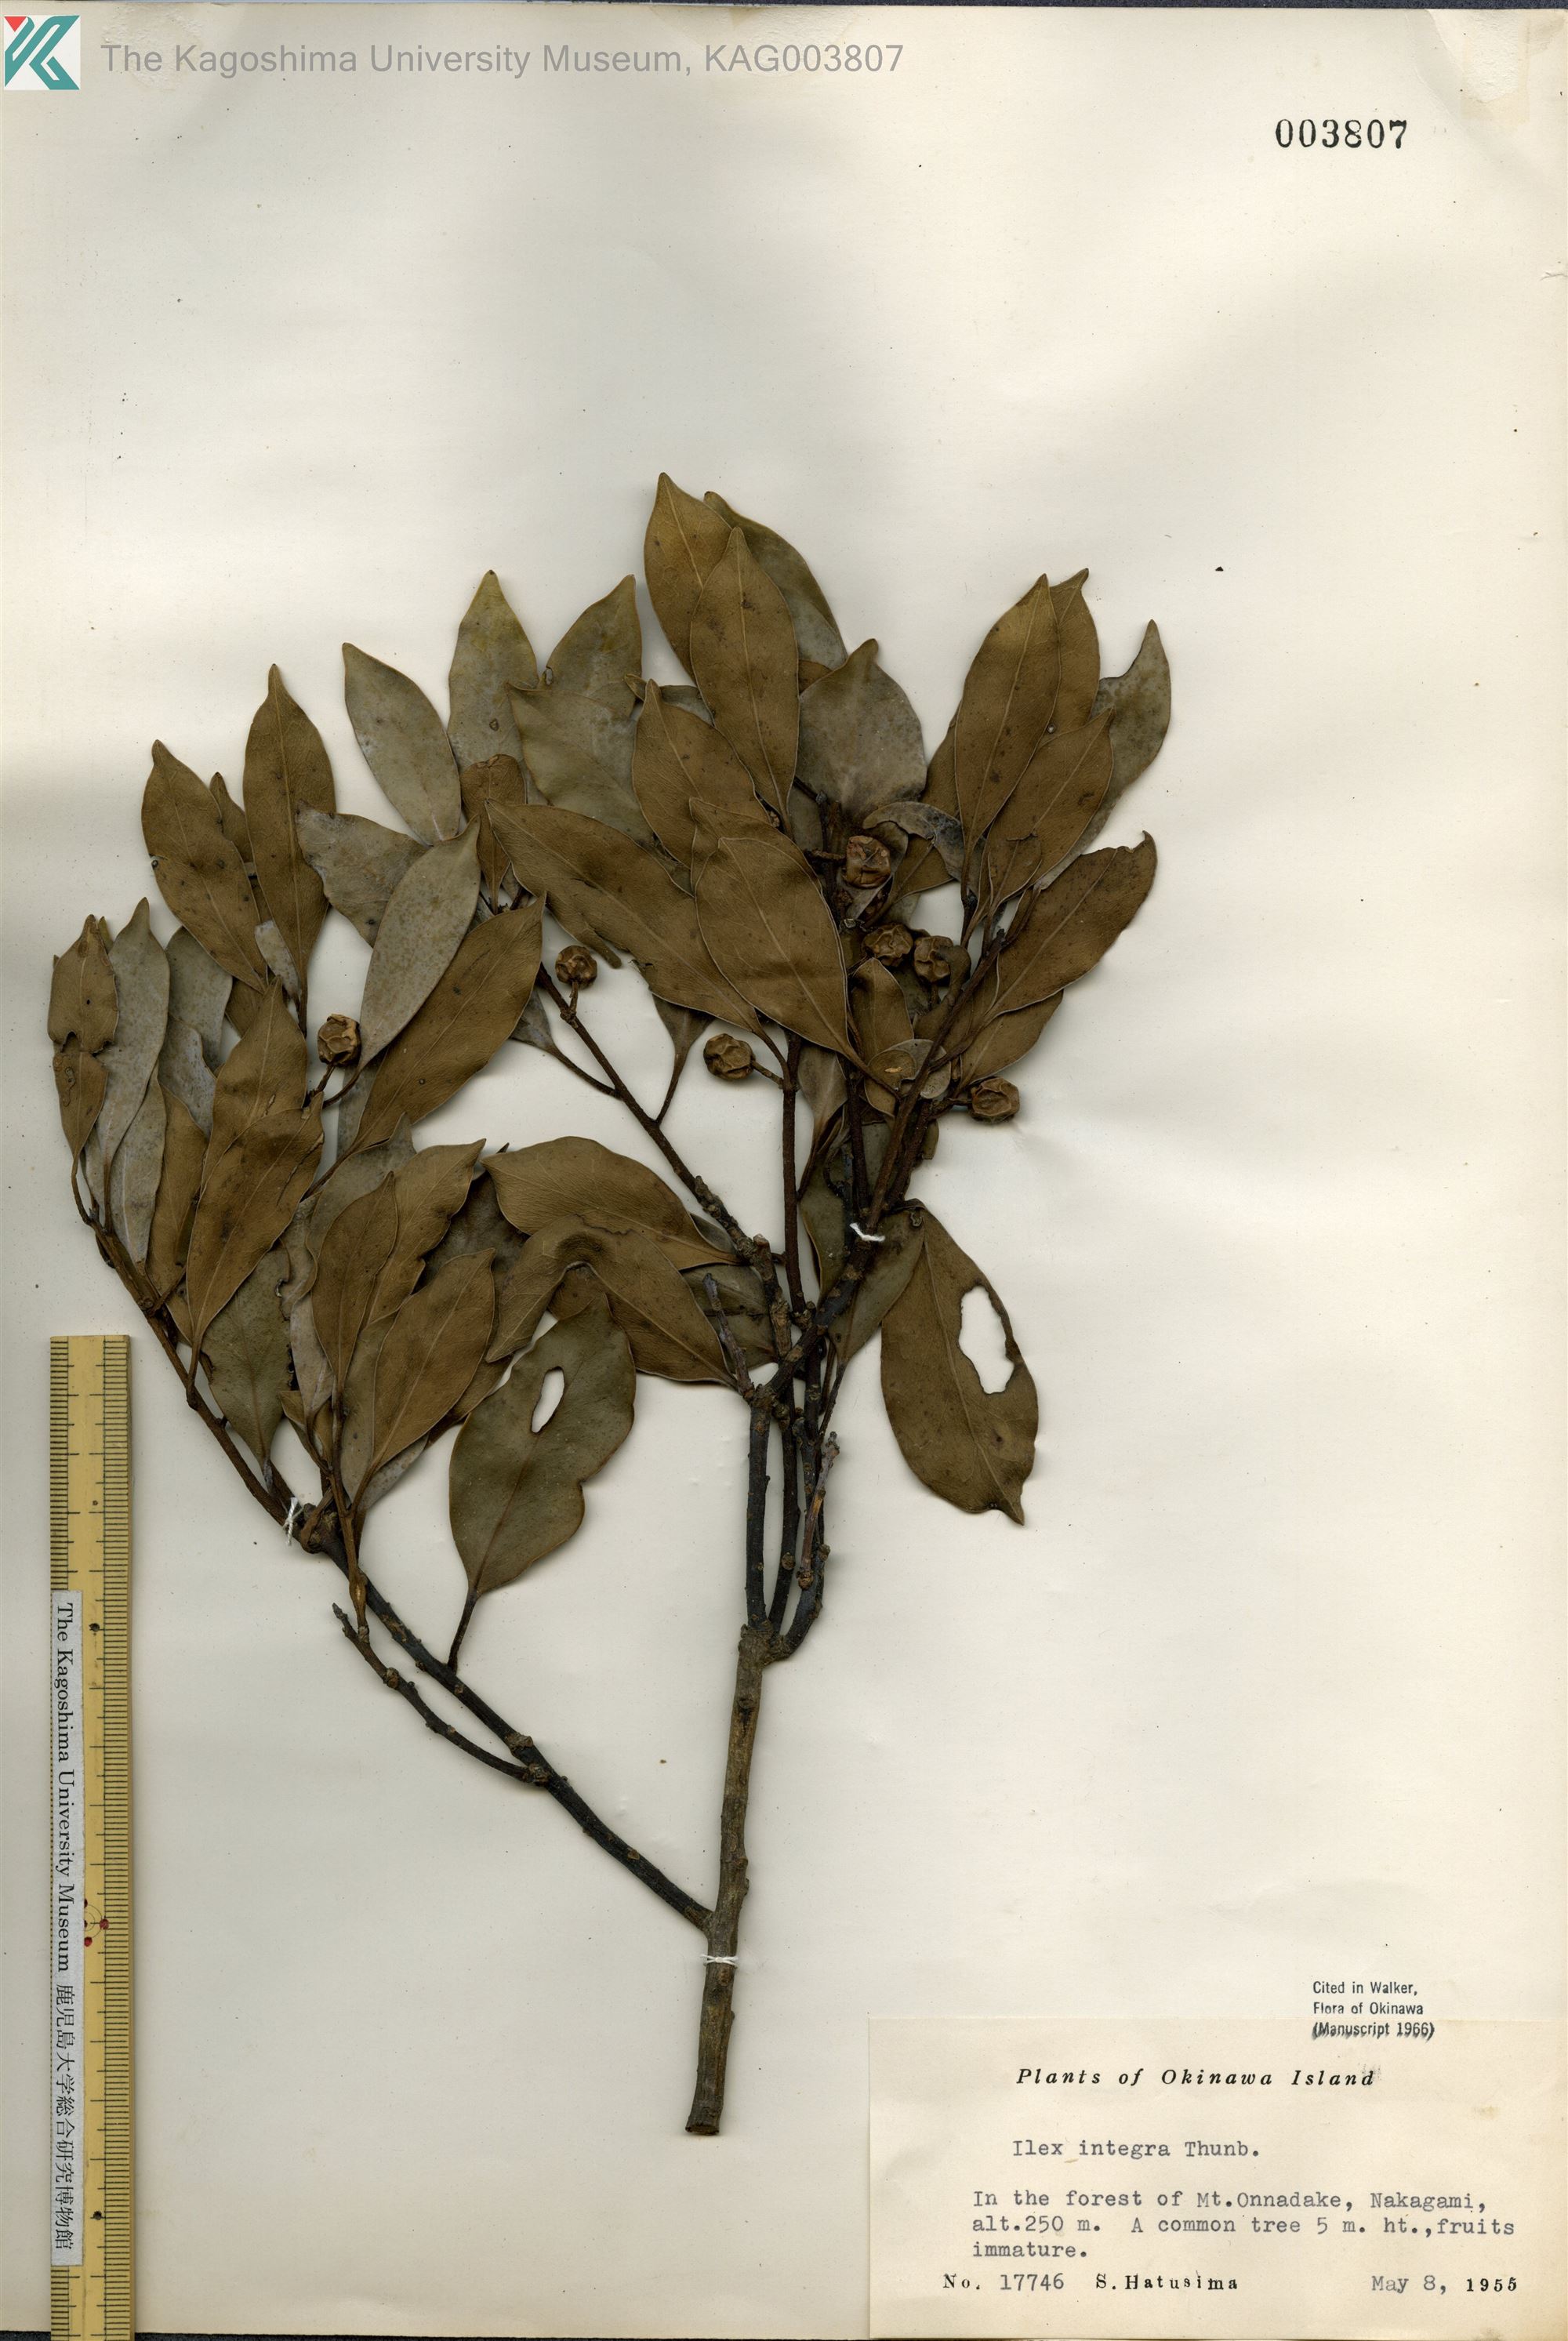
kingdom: Plantae
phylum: Tracheophyta
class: Magnoliopsida
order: Aquifoliales
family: Aquifoliaceae
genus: Ilex
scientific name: Ilex integra
